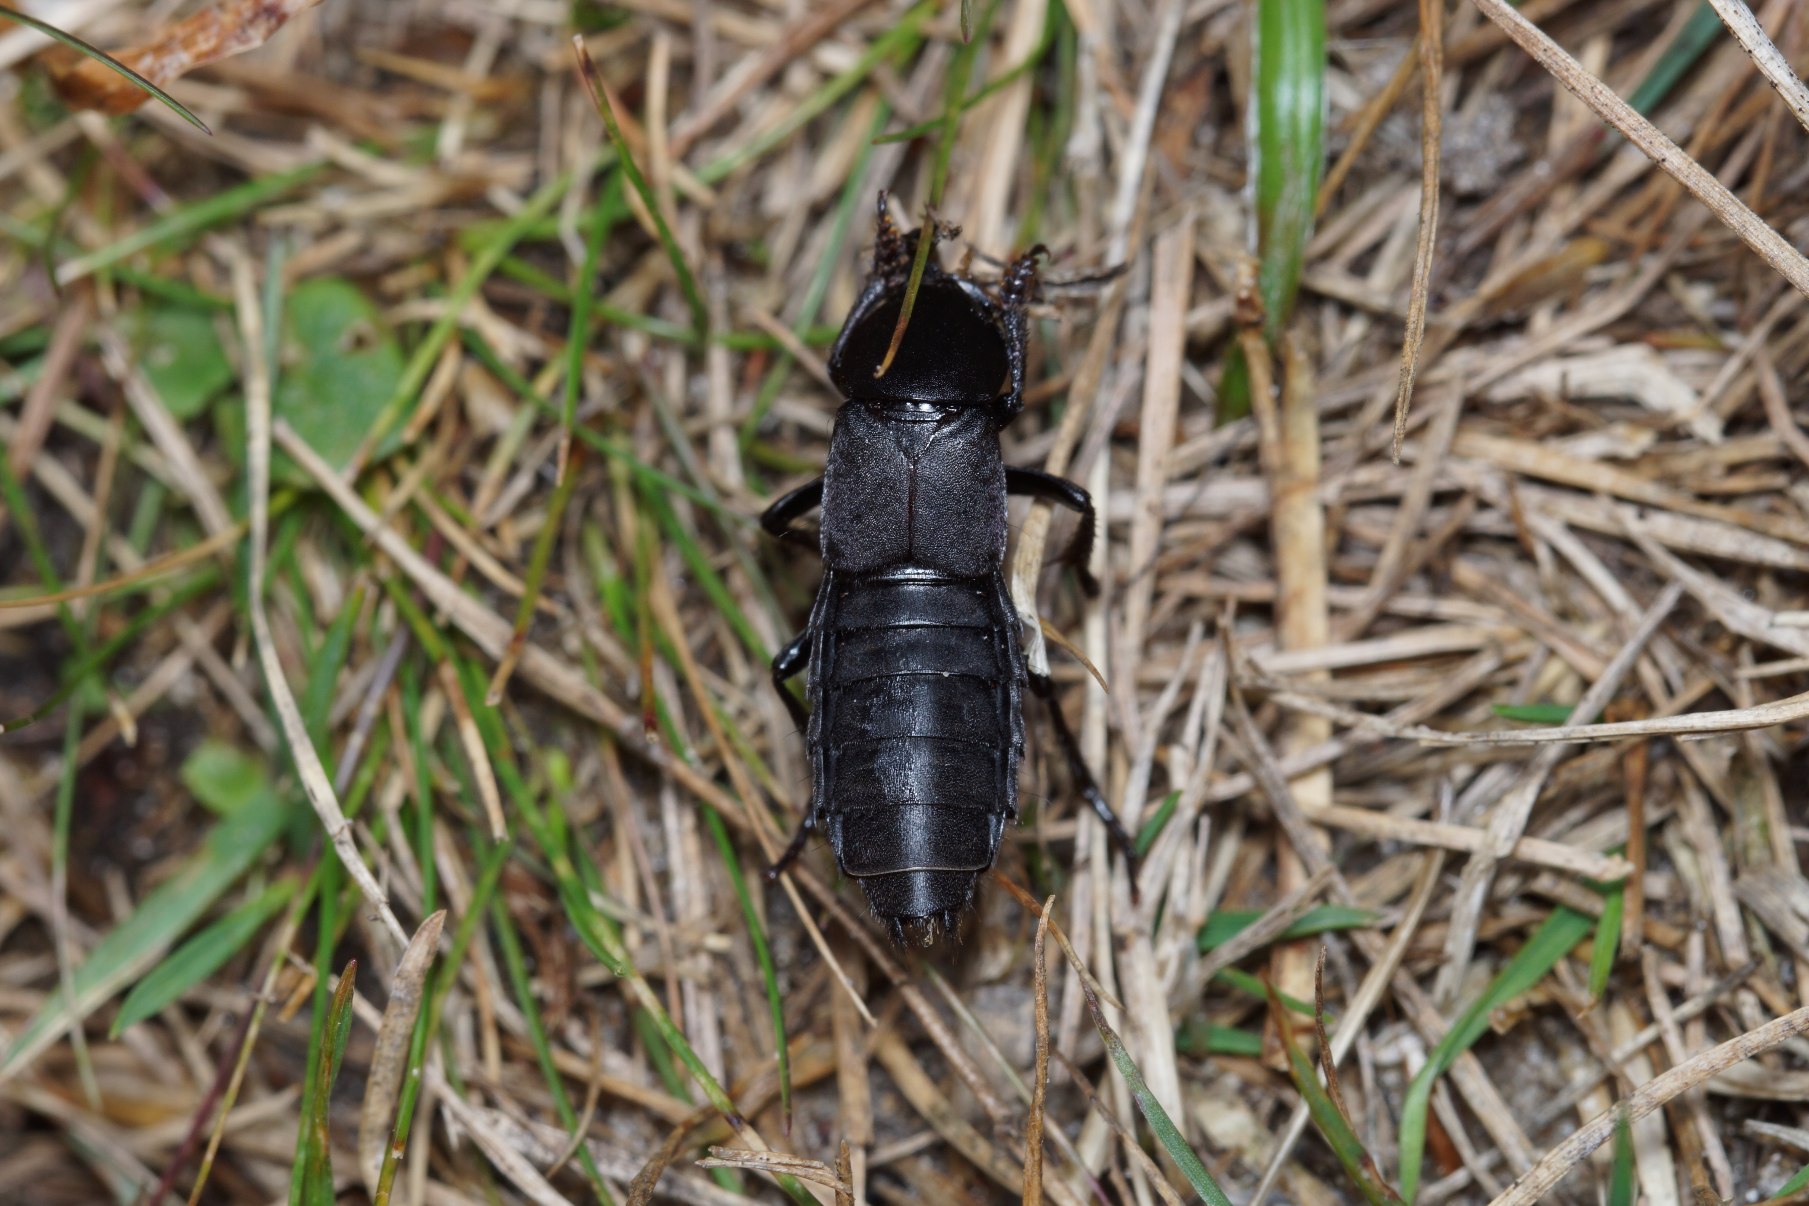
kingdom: Animalia
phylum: Arthropoda
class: Insecta
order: Coleoptera
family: Staphylinidae
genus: Ocypus
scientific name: Ocypus olens
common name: Stor rovbille
